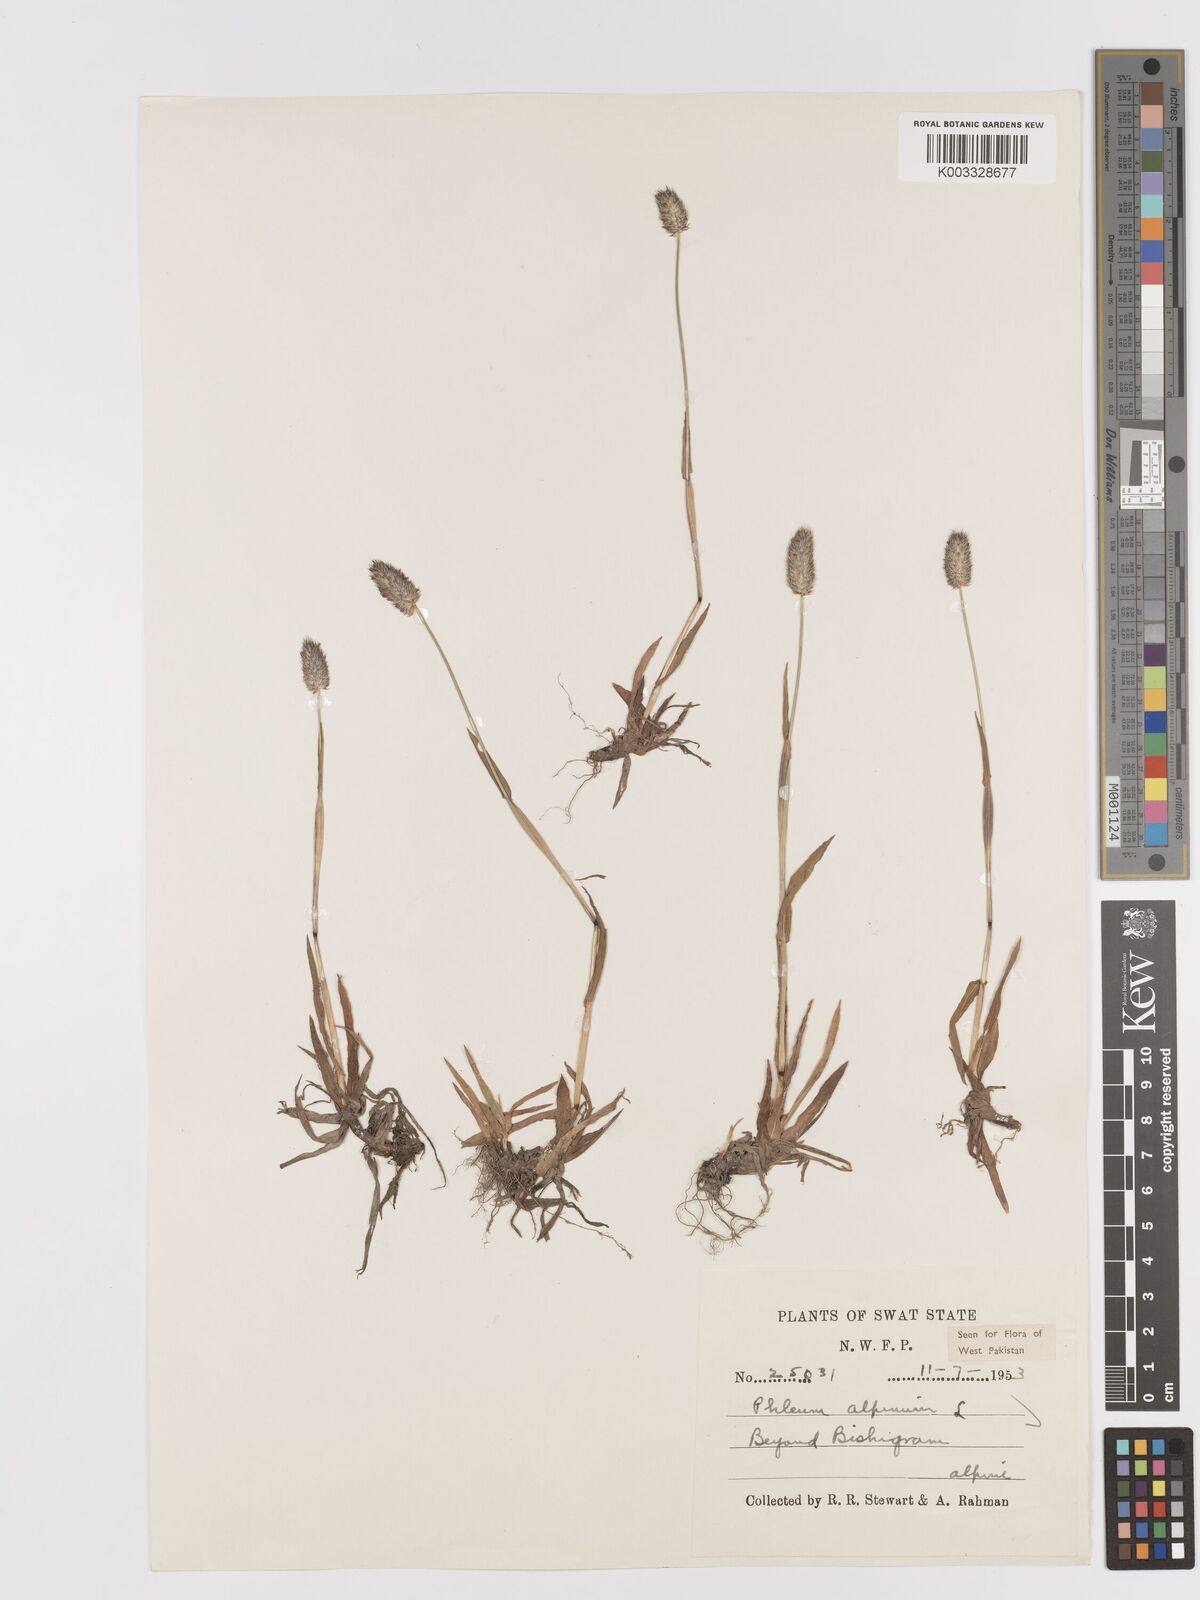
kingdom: Plantae
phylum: Tracheophyta
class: Liliopsida
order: Poales
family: Poaceae
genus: Phleum
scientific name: Phleum alpinum
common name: Alpine cat's-tail
